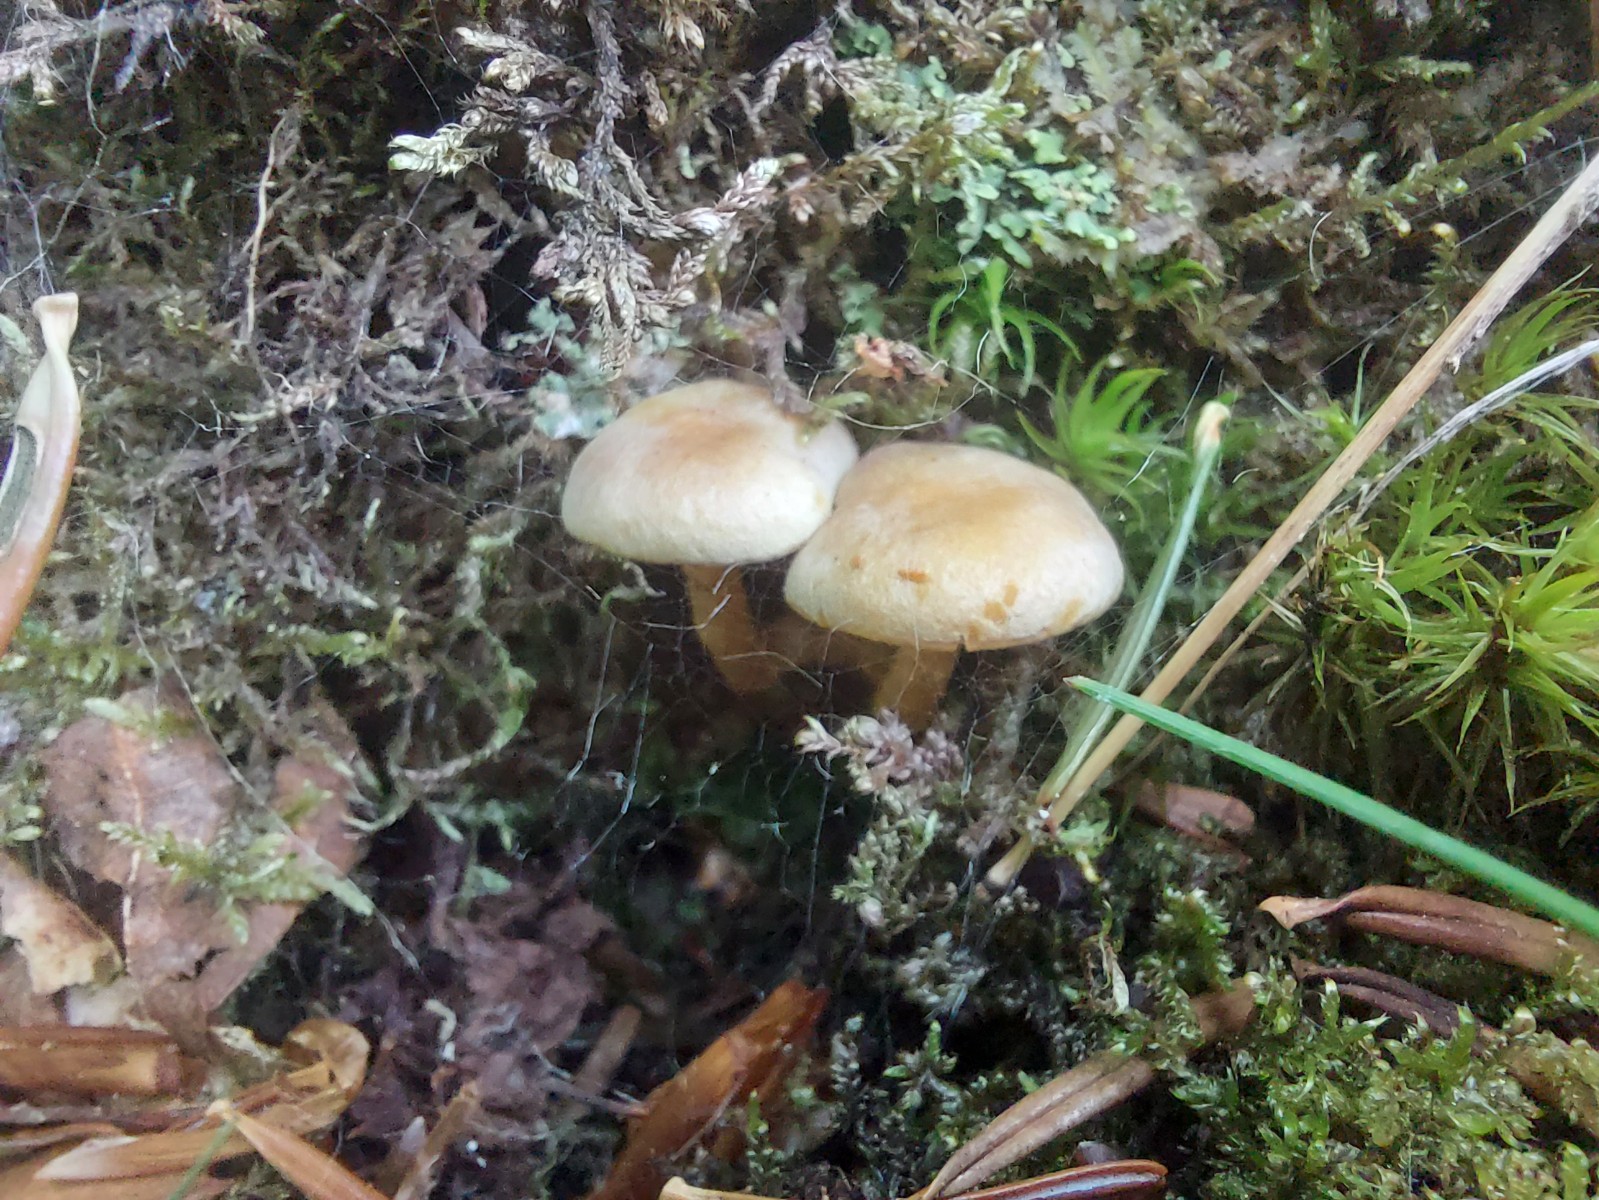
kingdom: Fungi
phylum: Basidiomycota
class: Agaricomycetes
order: Agaricales
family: Strophariaceae
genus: Hypholoma
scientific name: Hypholoma fasciculare
